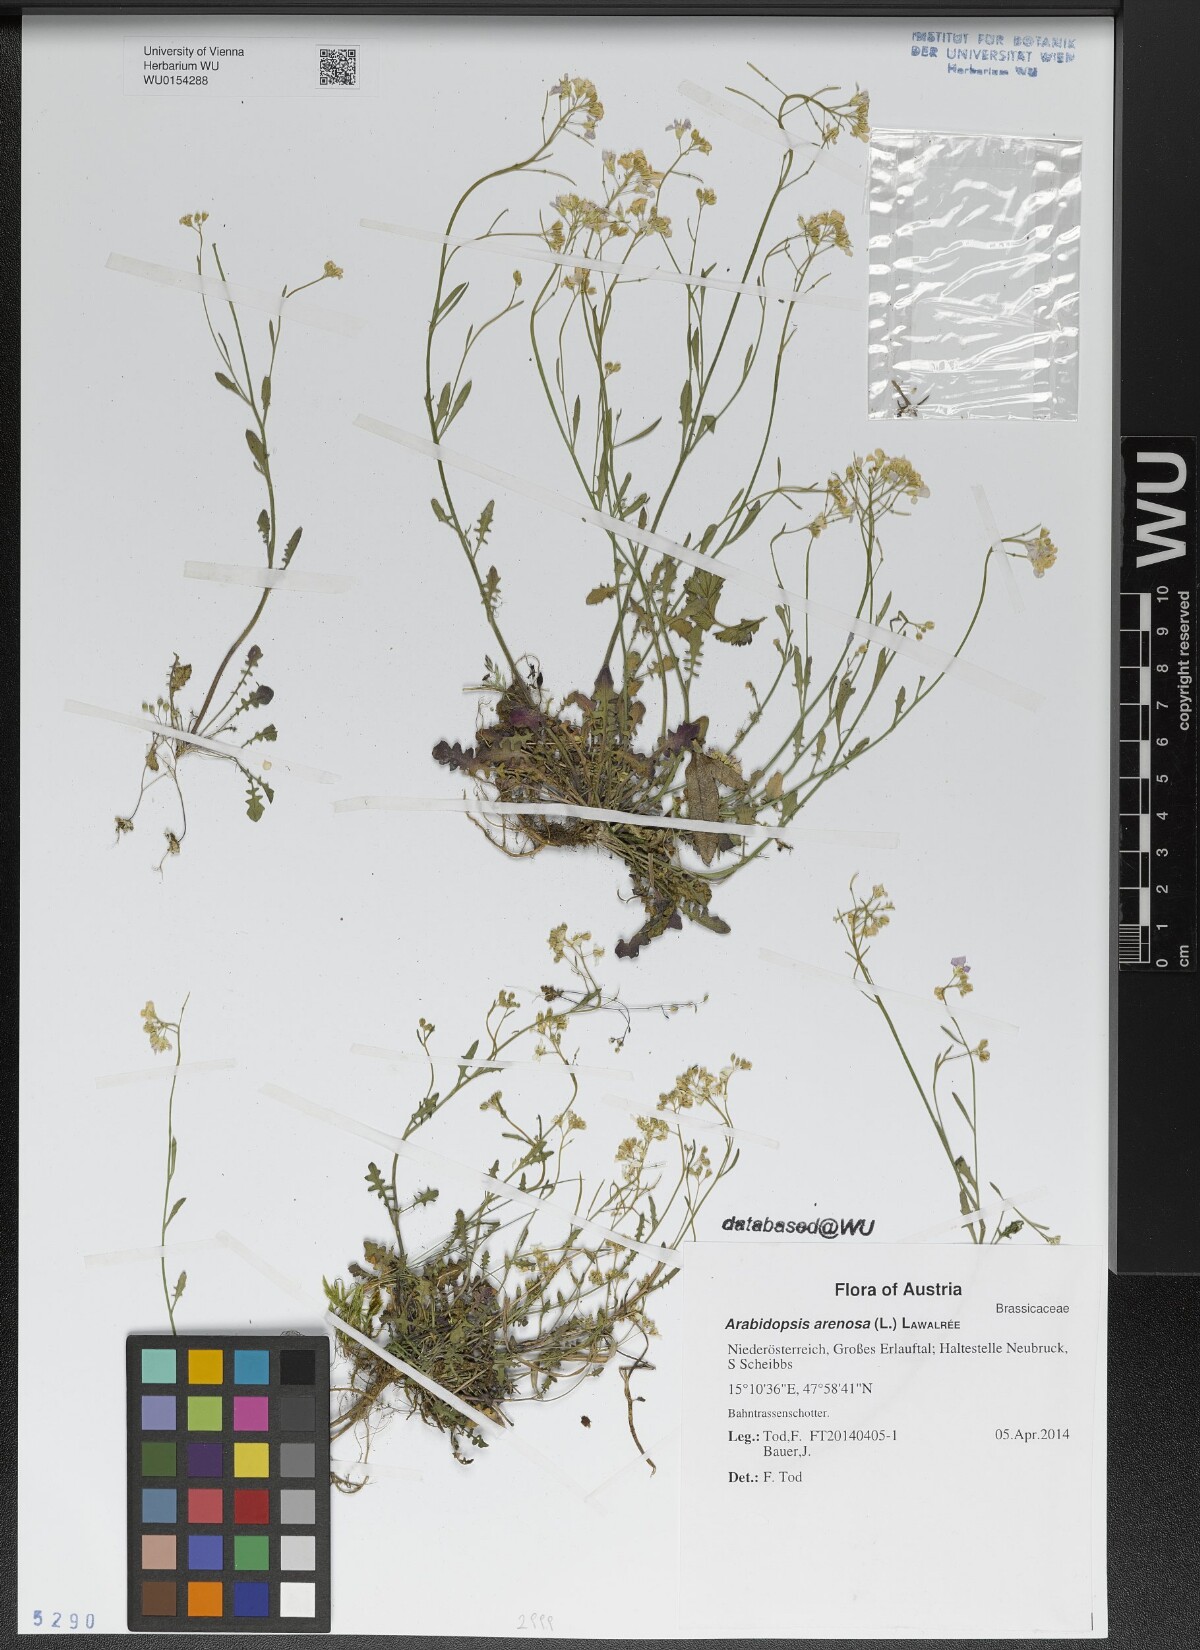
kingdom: Plantae
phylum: Tracheophyta
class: Magnoliopsida
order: Brassicales
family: Brassicaceae
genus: Arabidopsis
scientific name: Arabidopsis arenosa
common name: Sand rock-cress
